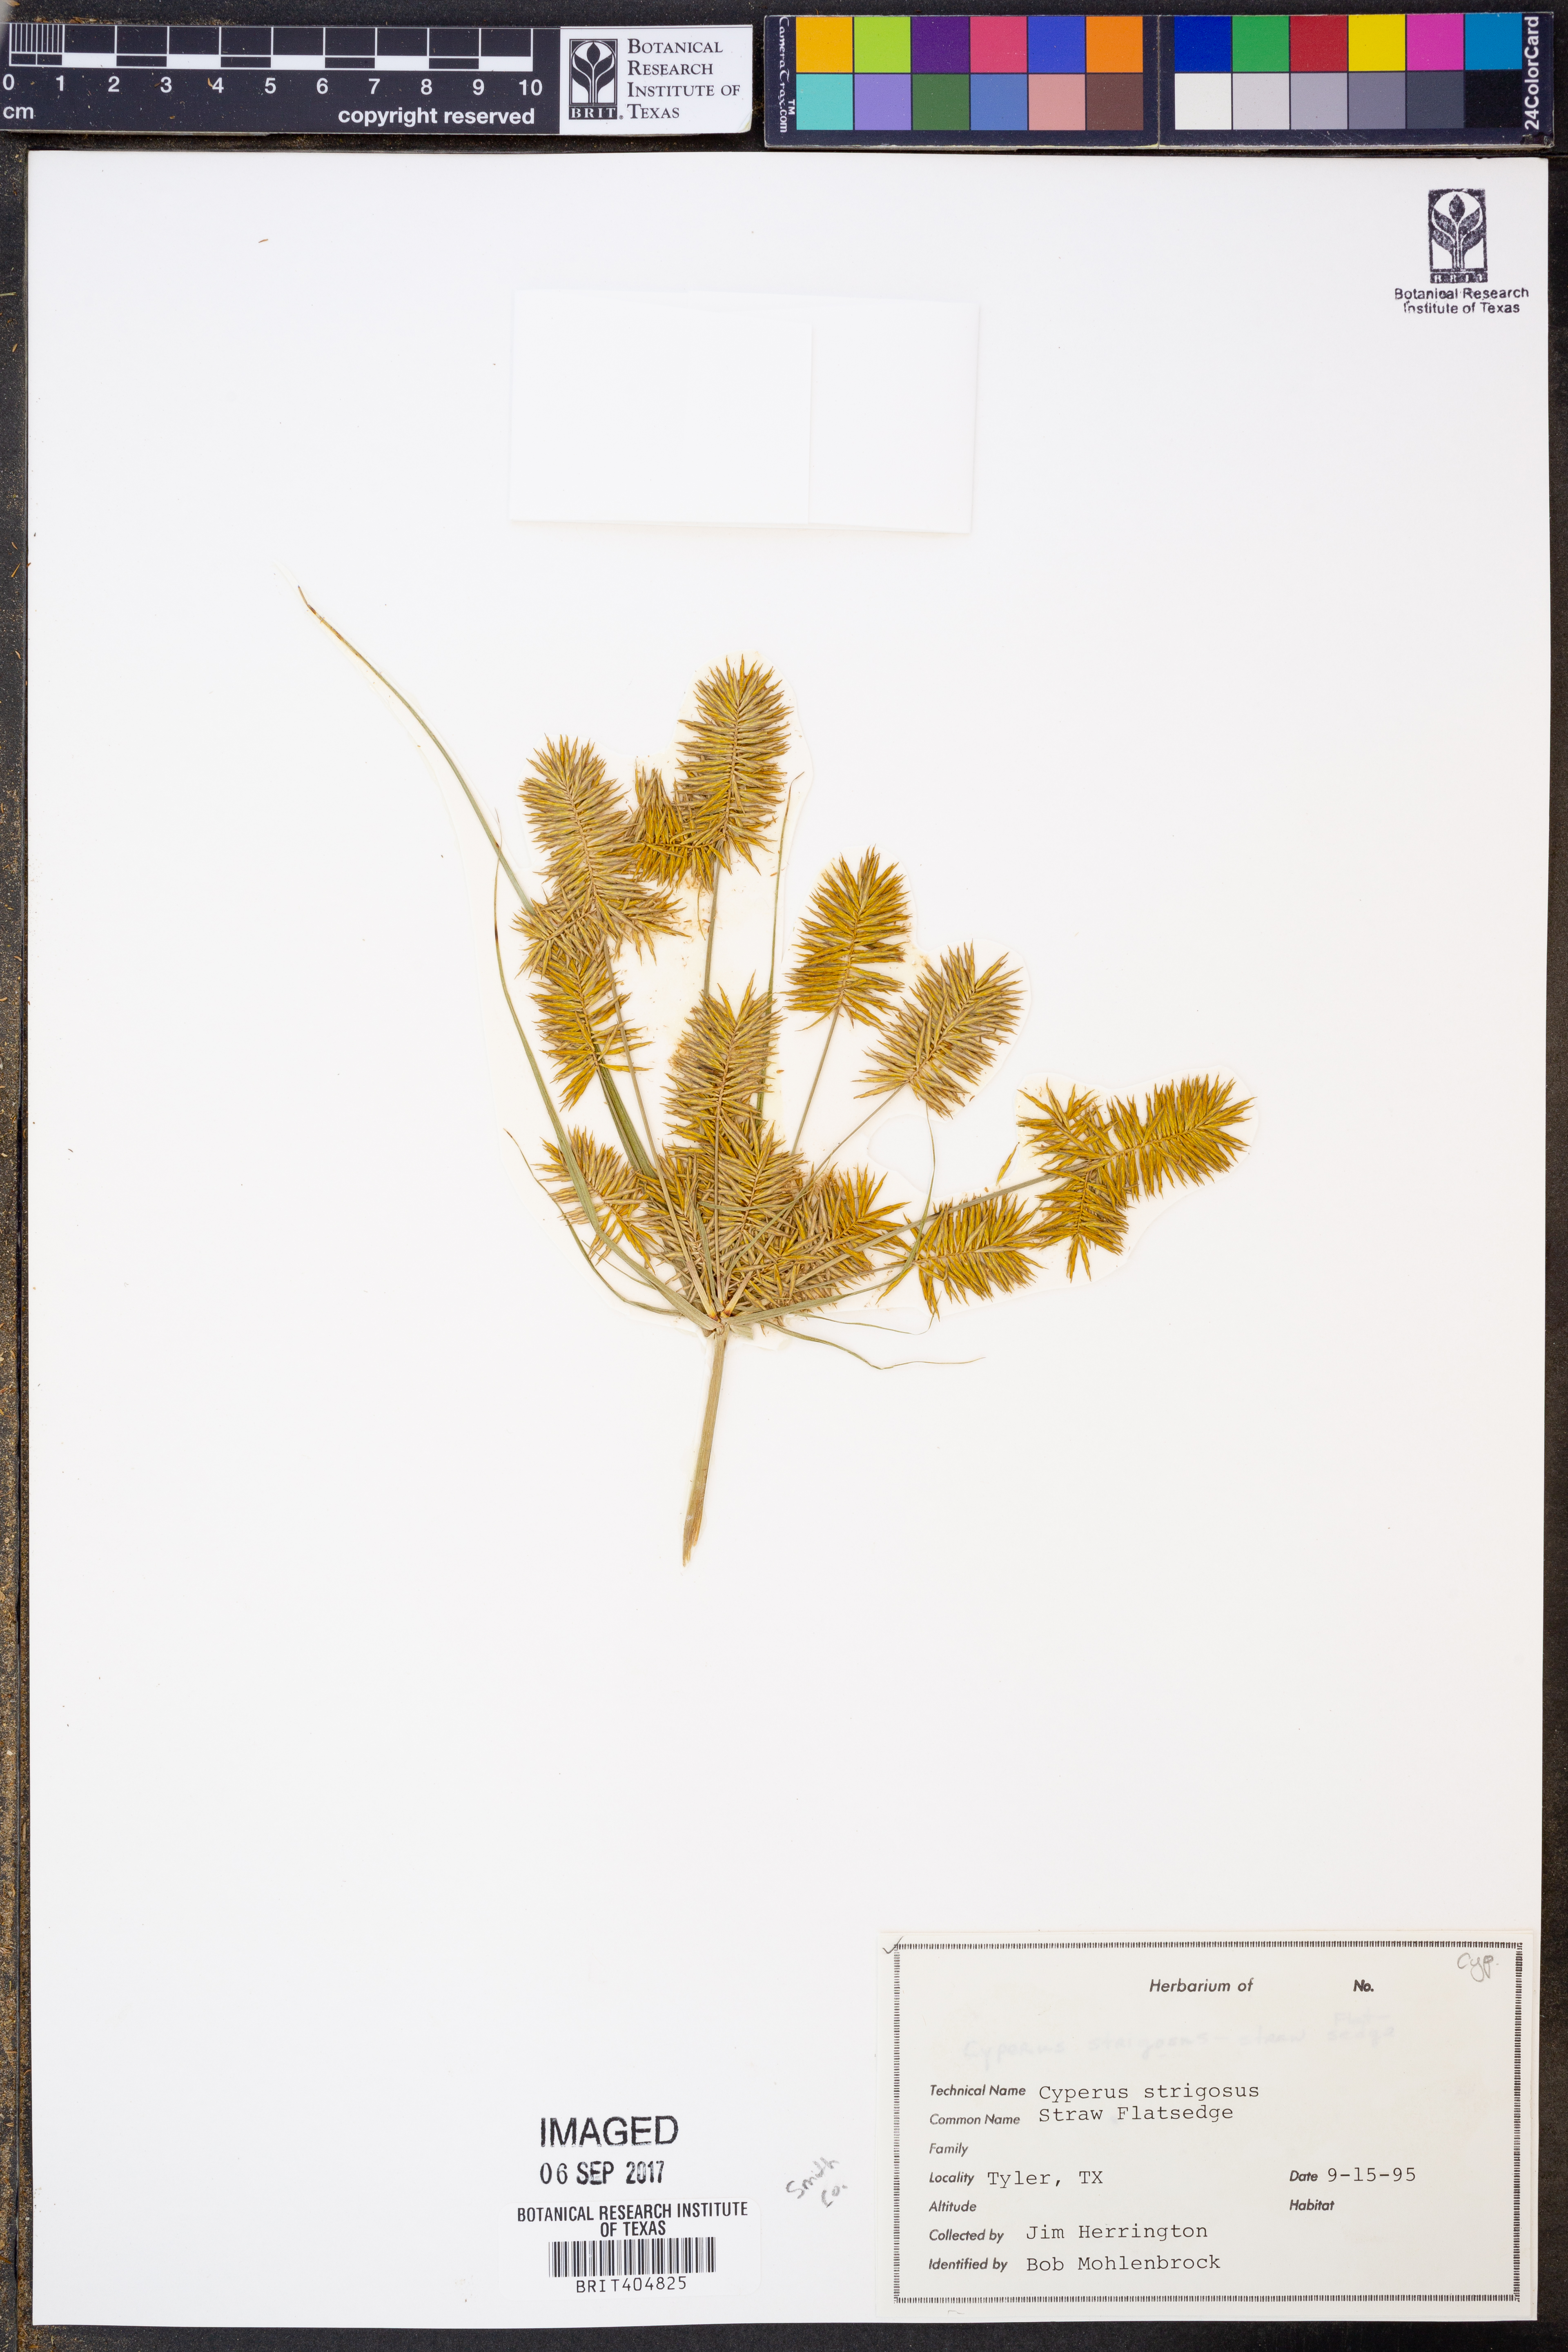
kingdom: Plantae
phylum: Tracheophyta
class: Liliopsida
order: Poales
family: Cyperaceae
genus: Cyperus
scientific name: Cyperus strigosus
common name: False nutsedge
